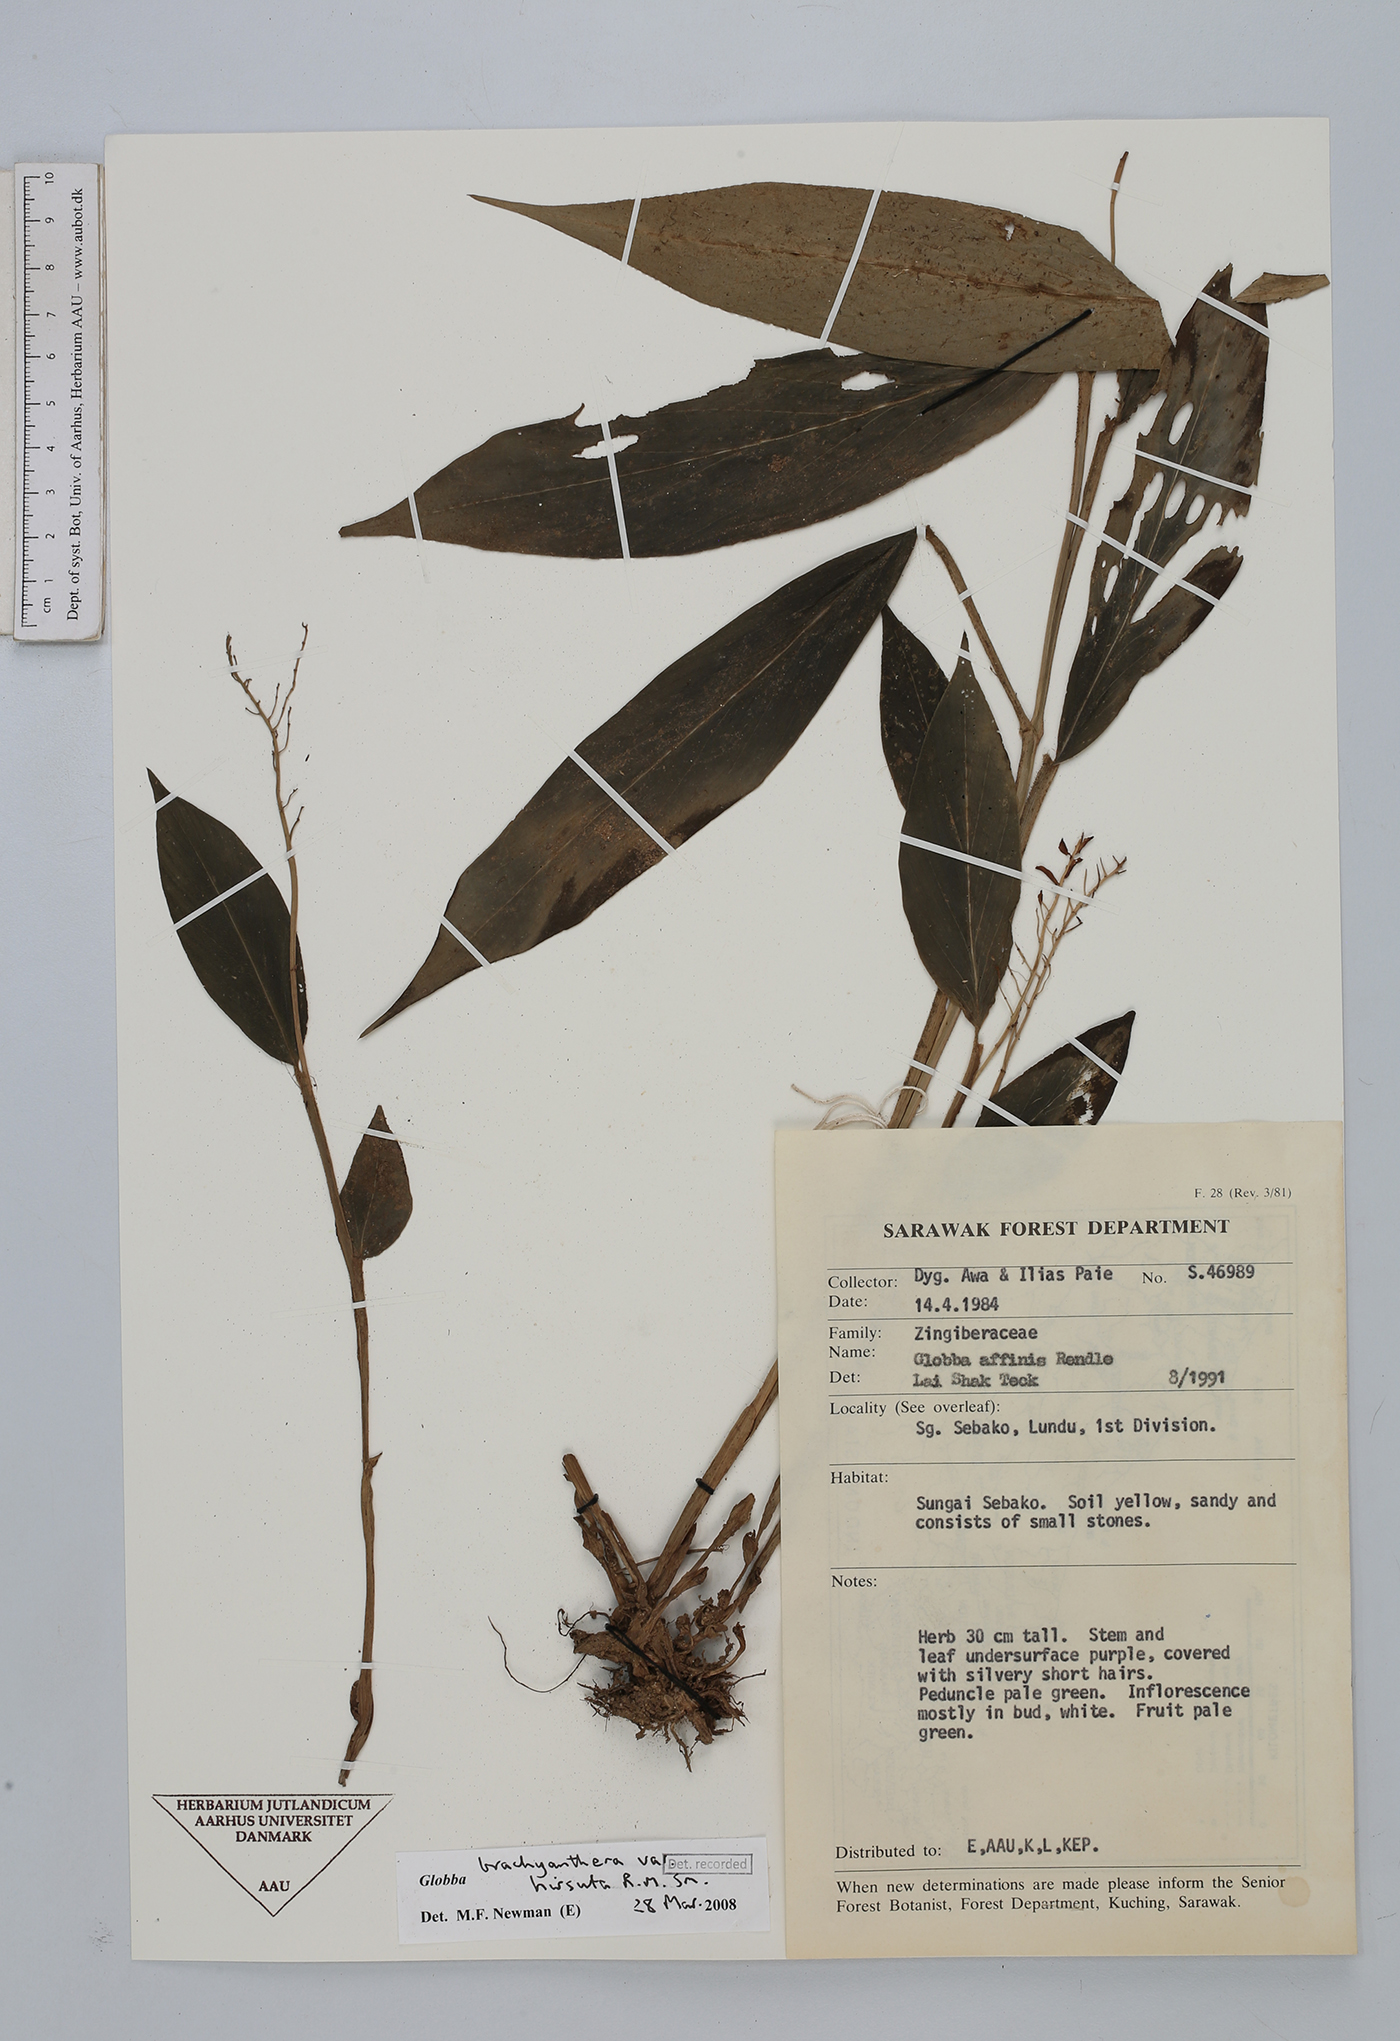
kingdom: Plantae
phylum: Tracheophyta
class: Liliopsida
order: Zingiberales
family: Zingiberaceae
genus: Globba
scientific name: Globba brachyanthera
